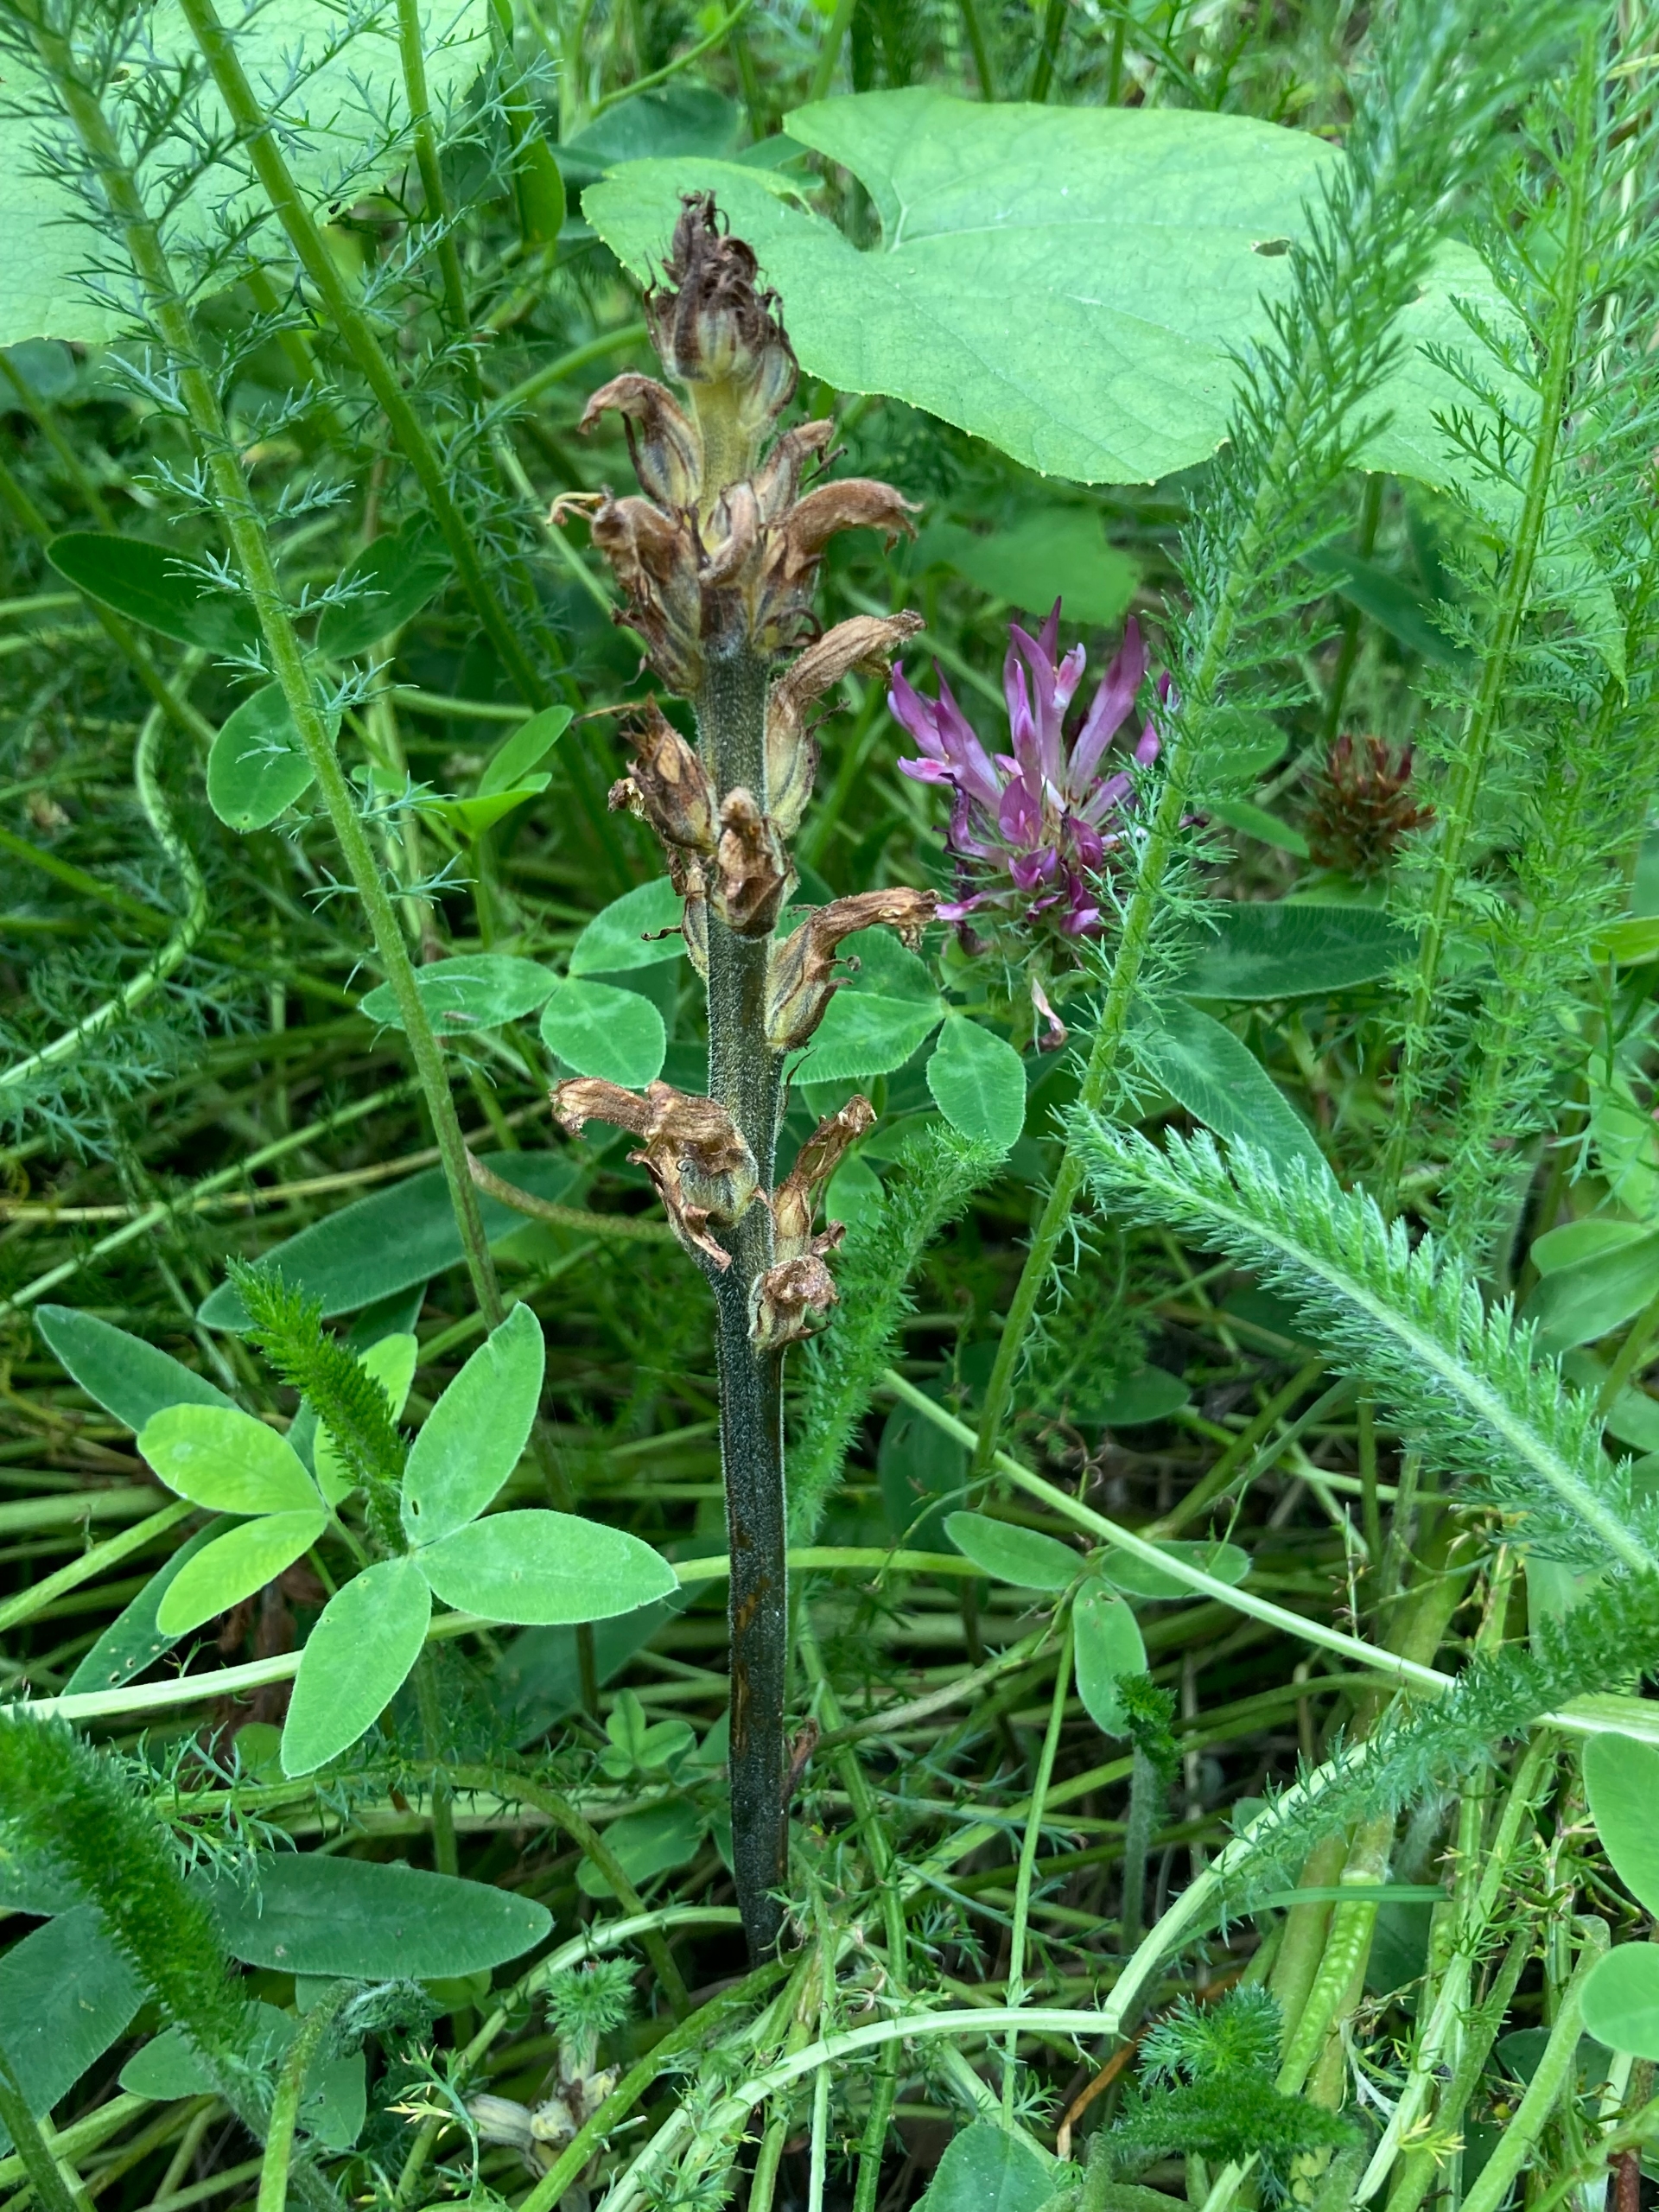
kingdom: Plantae
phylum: Tracheophyta
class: Magnoliopsida
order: Lamiales
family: Orobanchaceae
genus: Phelipanche
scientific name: Phelipanche purpurea
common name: Røllike-gyvelkvæler
